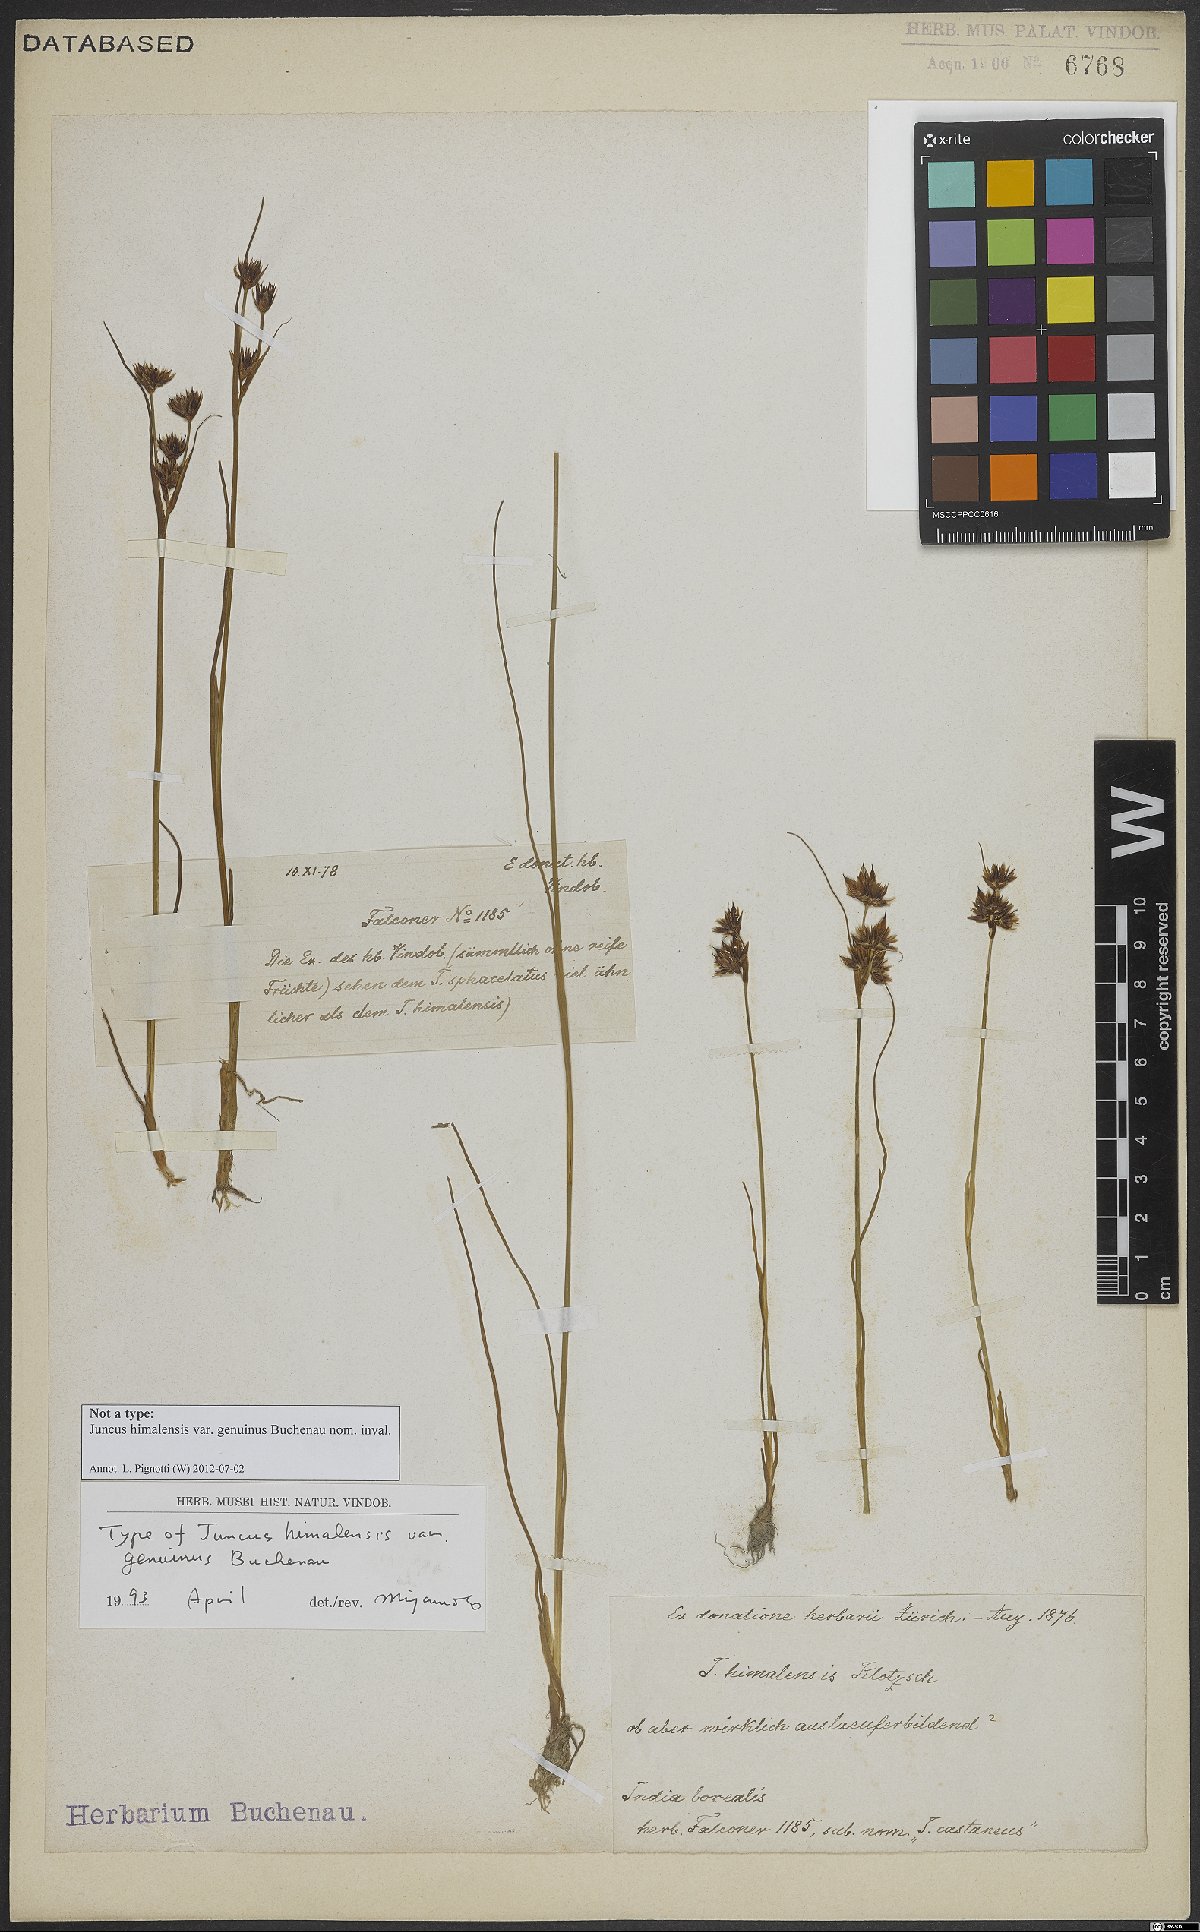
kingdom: Plantae
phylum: Tracheophyta
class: Liliopsida
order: Poales
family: Juncaceae
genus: Juncus
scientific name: Juncus himalensis
